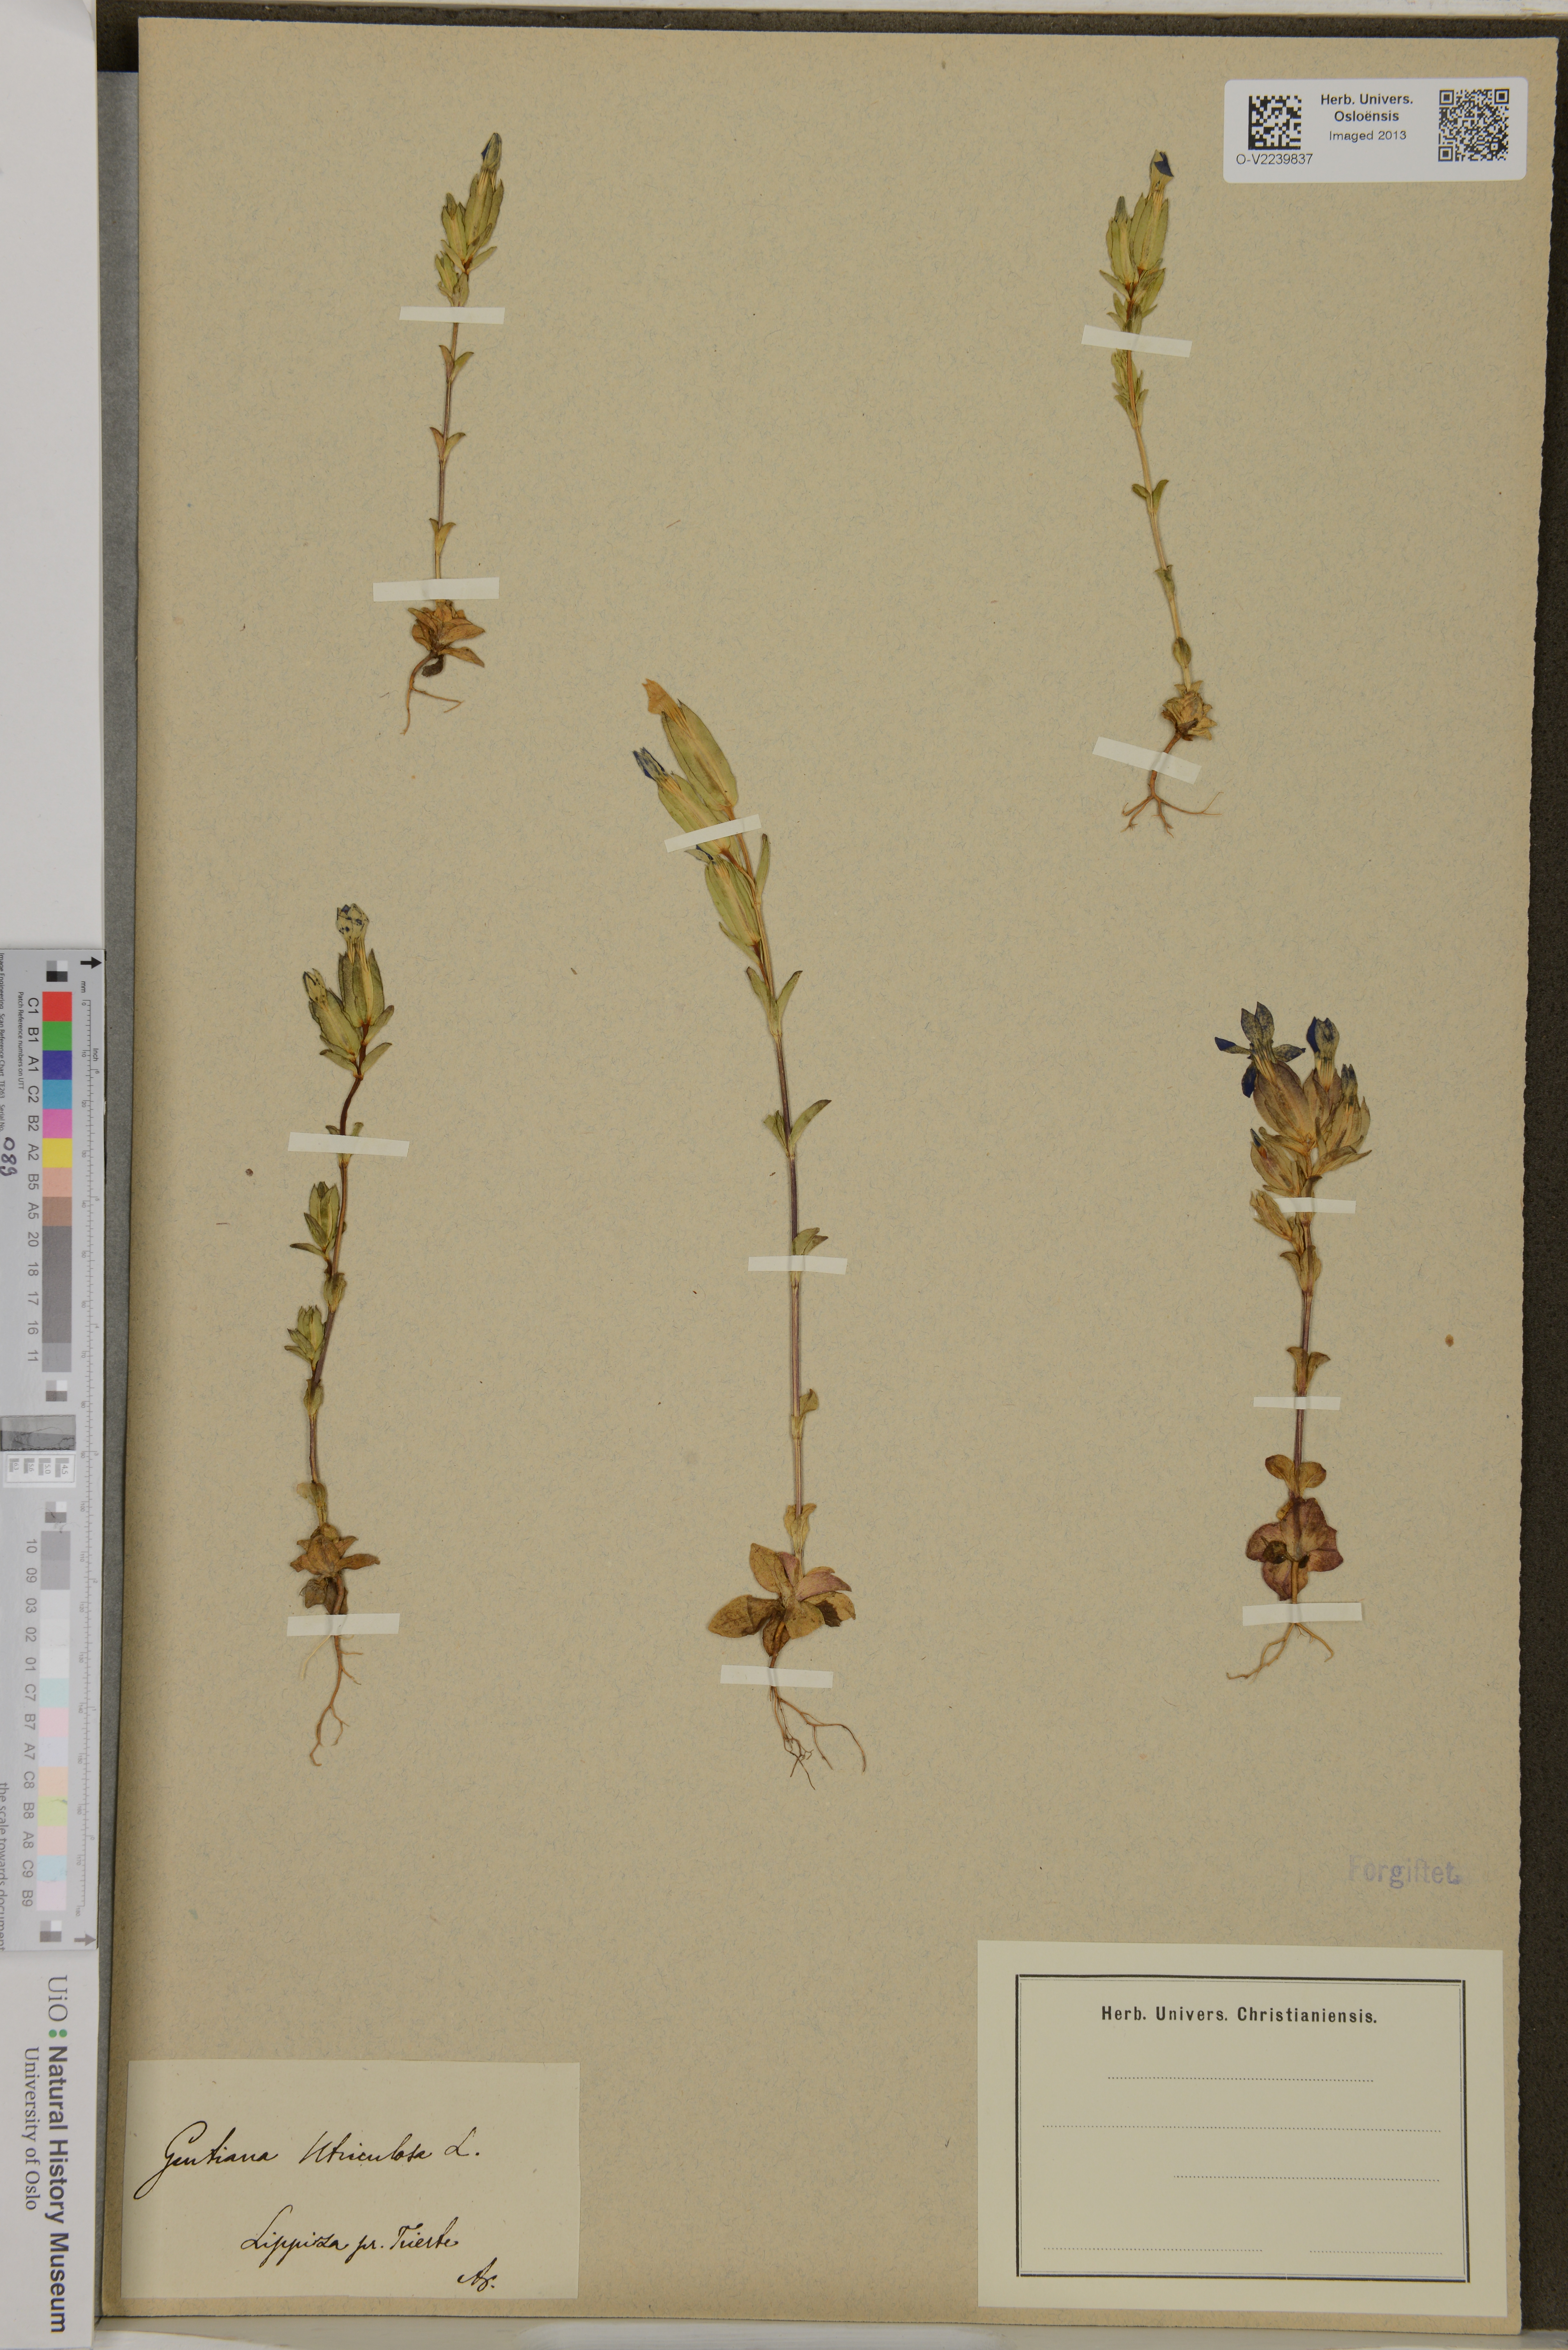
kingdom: Plantae
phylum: Tracheophyta
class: Magnoliopsida
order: Gentianales
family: Gentianaceae
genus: Gentiana
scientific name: Gentiana utriculosa
